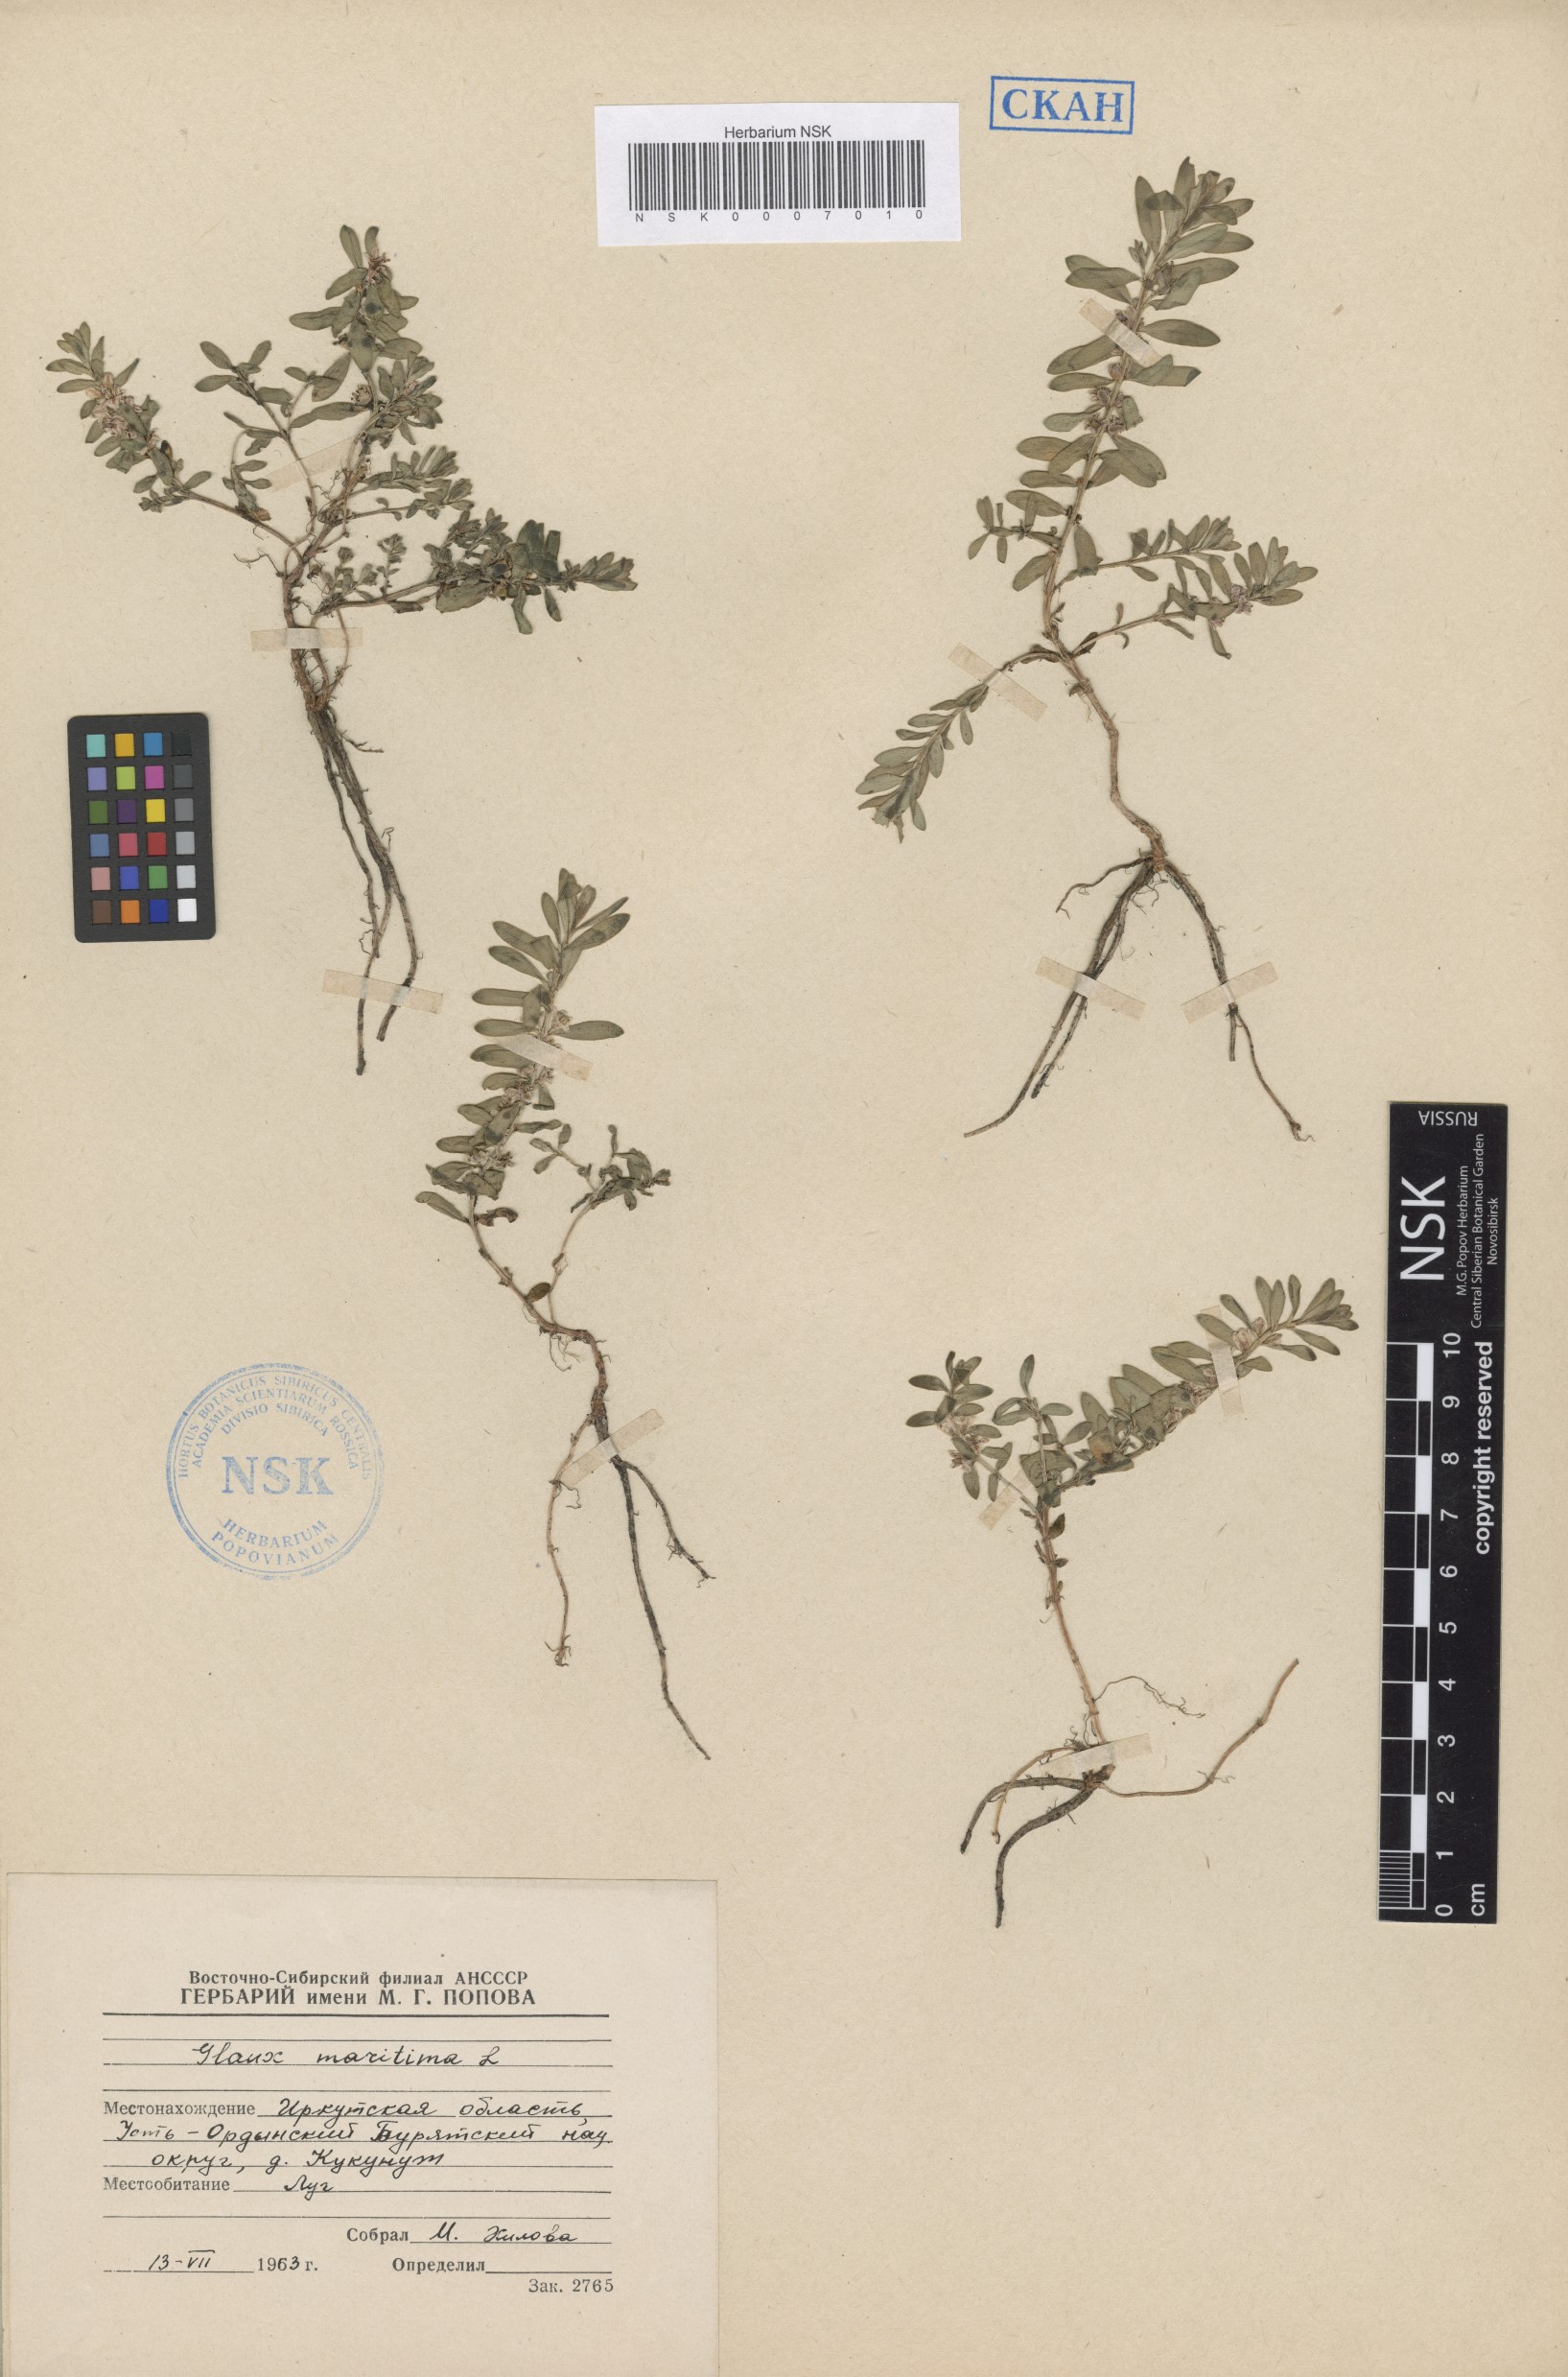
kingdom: Plantae
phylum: Tracheophyta
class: Magnoliopsida
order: Ericales
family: Primulaceae
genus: Lysimachia
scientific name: Lysimachia maritima
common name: Sea milkwort
